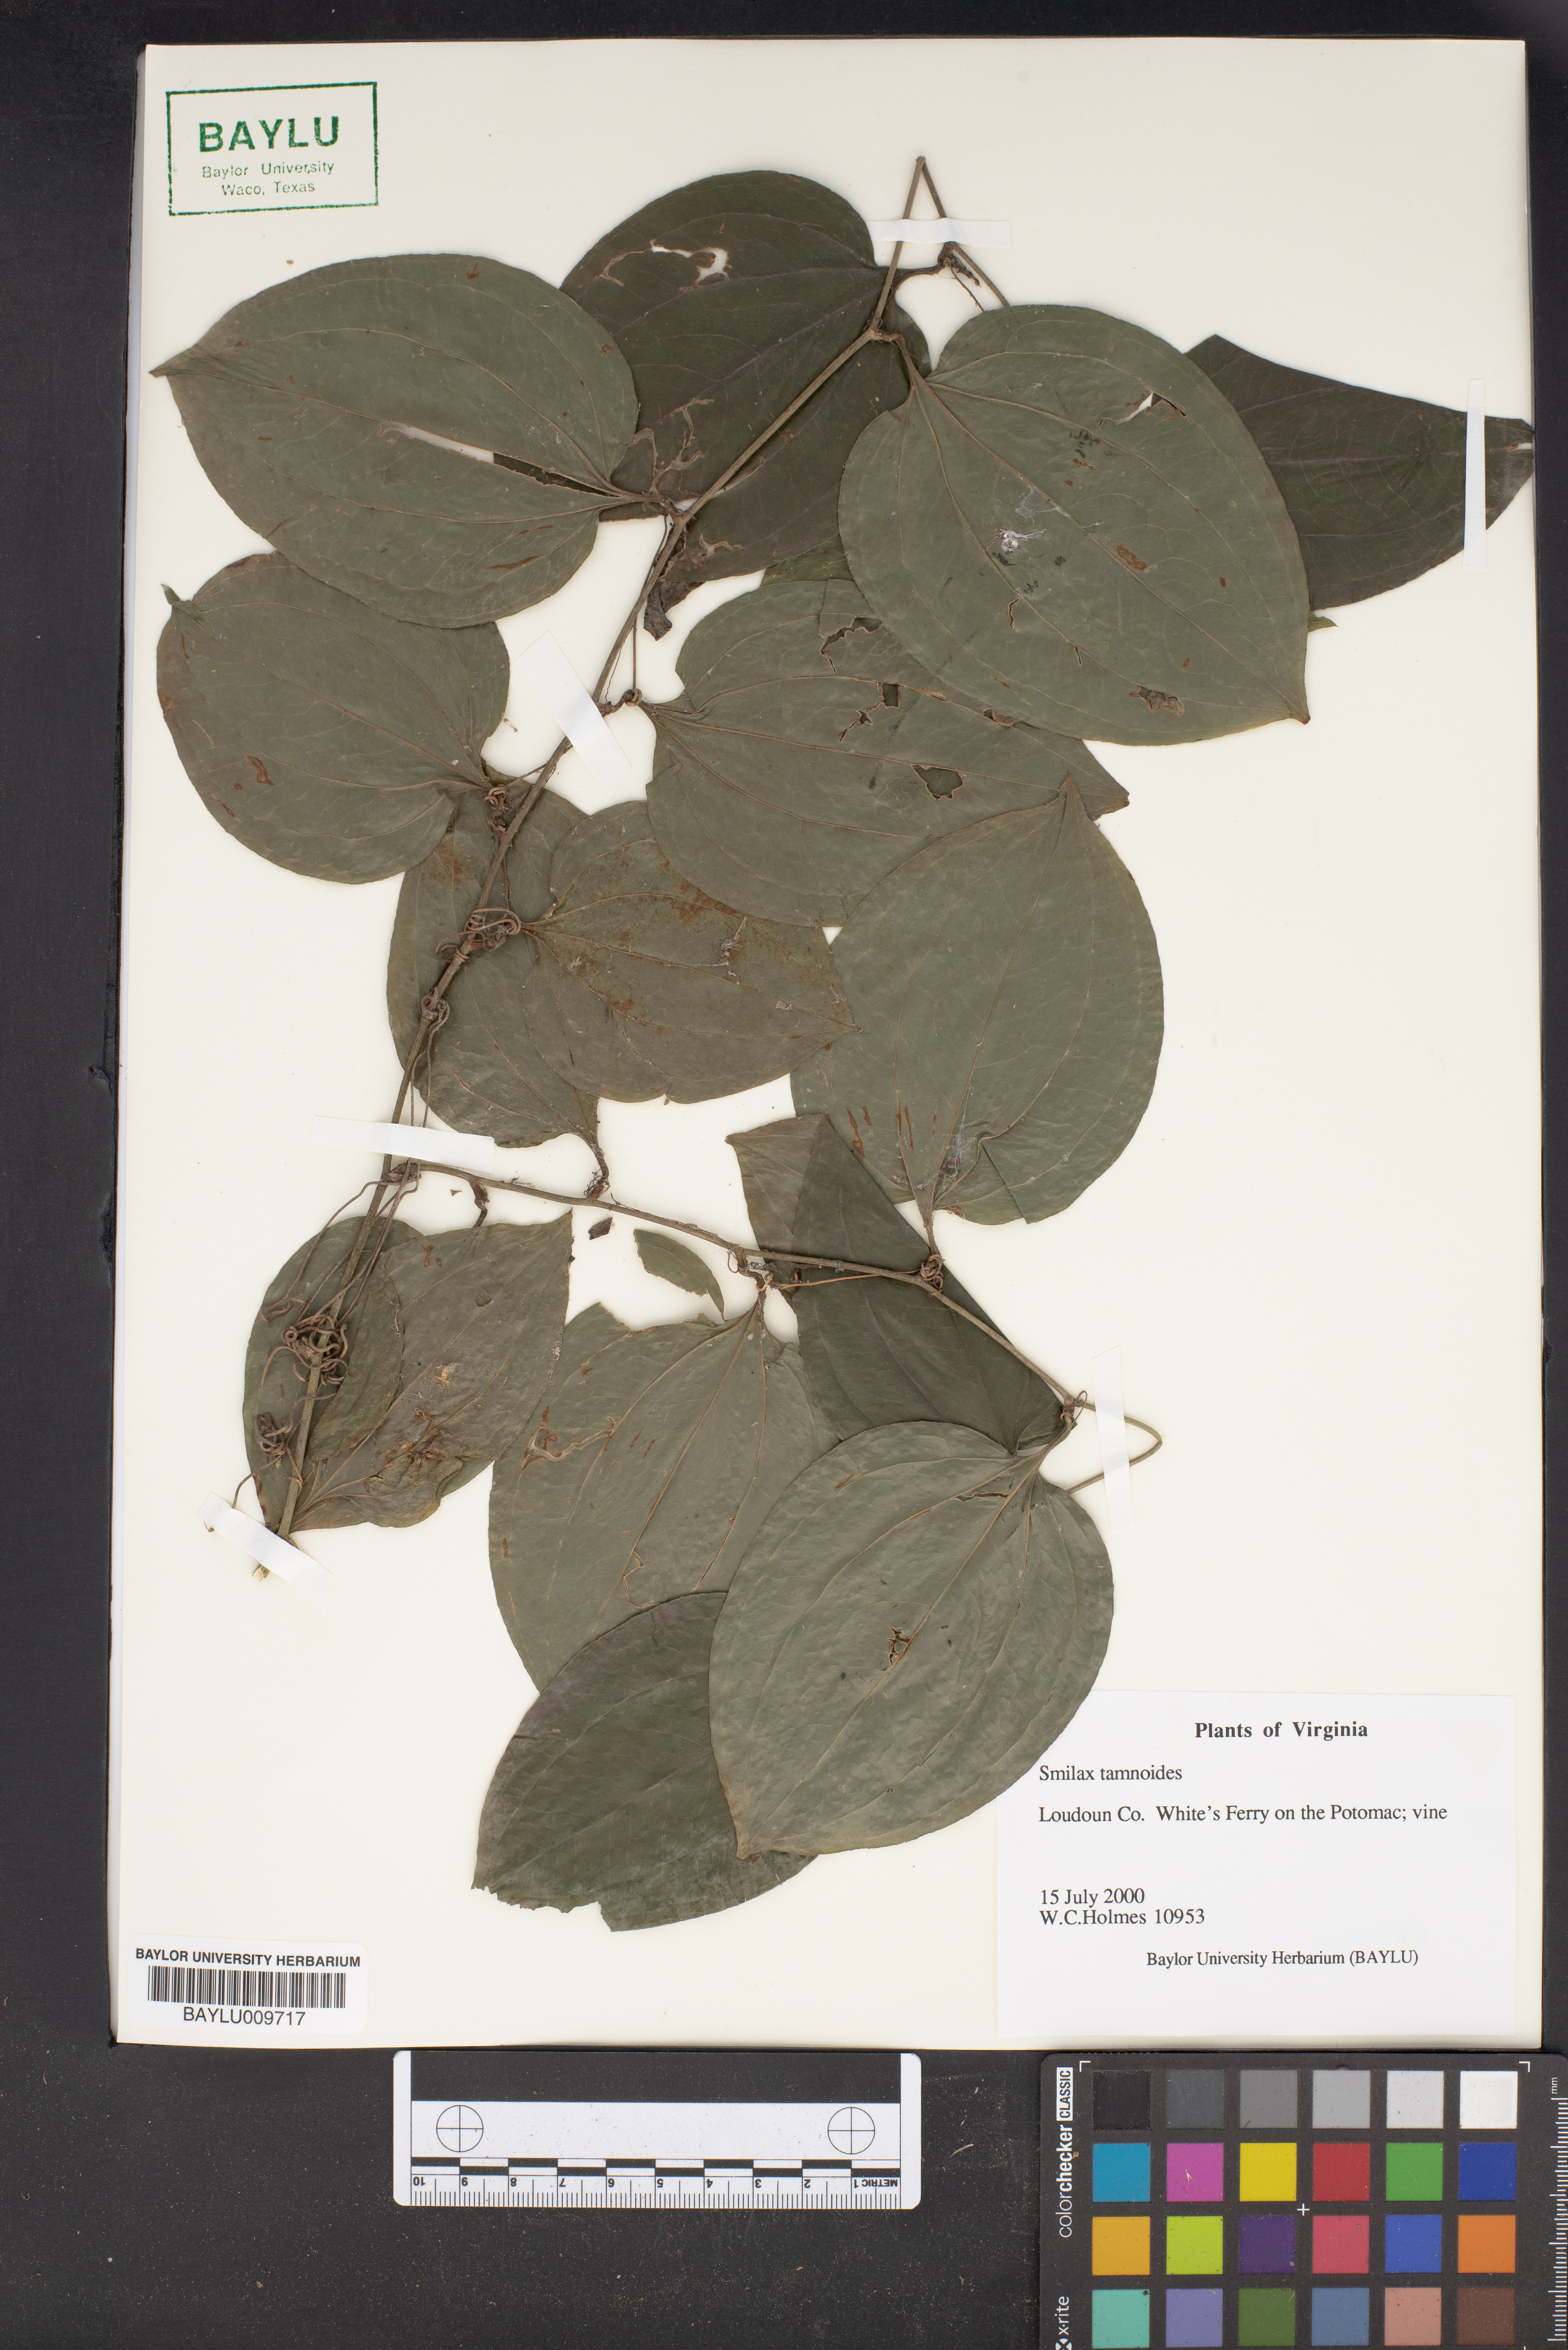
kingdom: Plantae
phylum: Tracheophyta
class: Liliopsida
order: Liliales
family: Smilacaceae
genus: Smilax
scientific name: Smilax tamnoides
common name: Hellfetter
